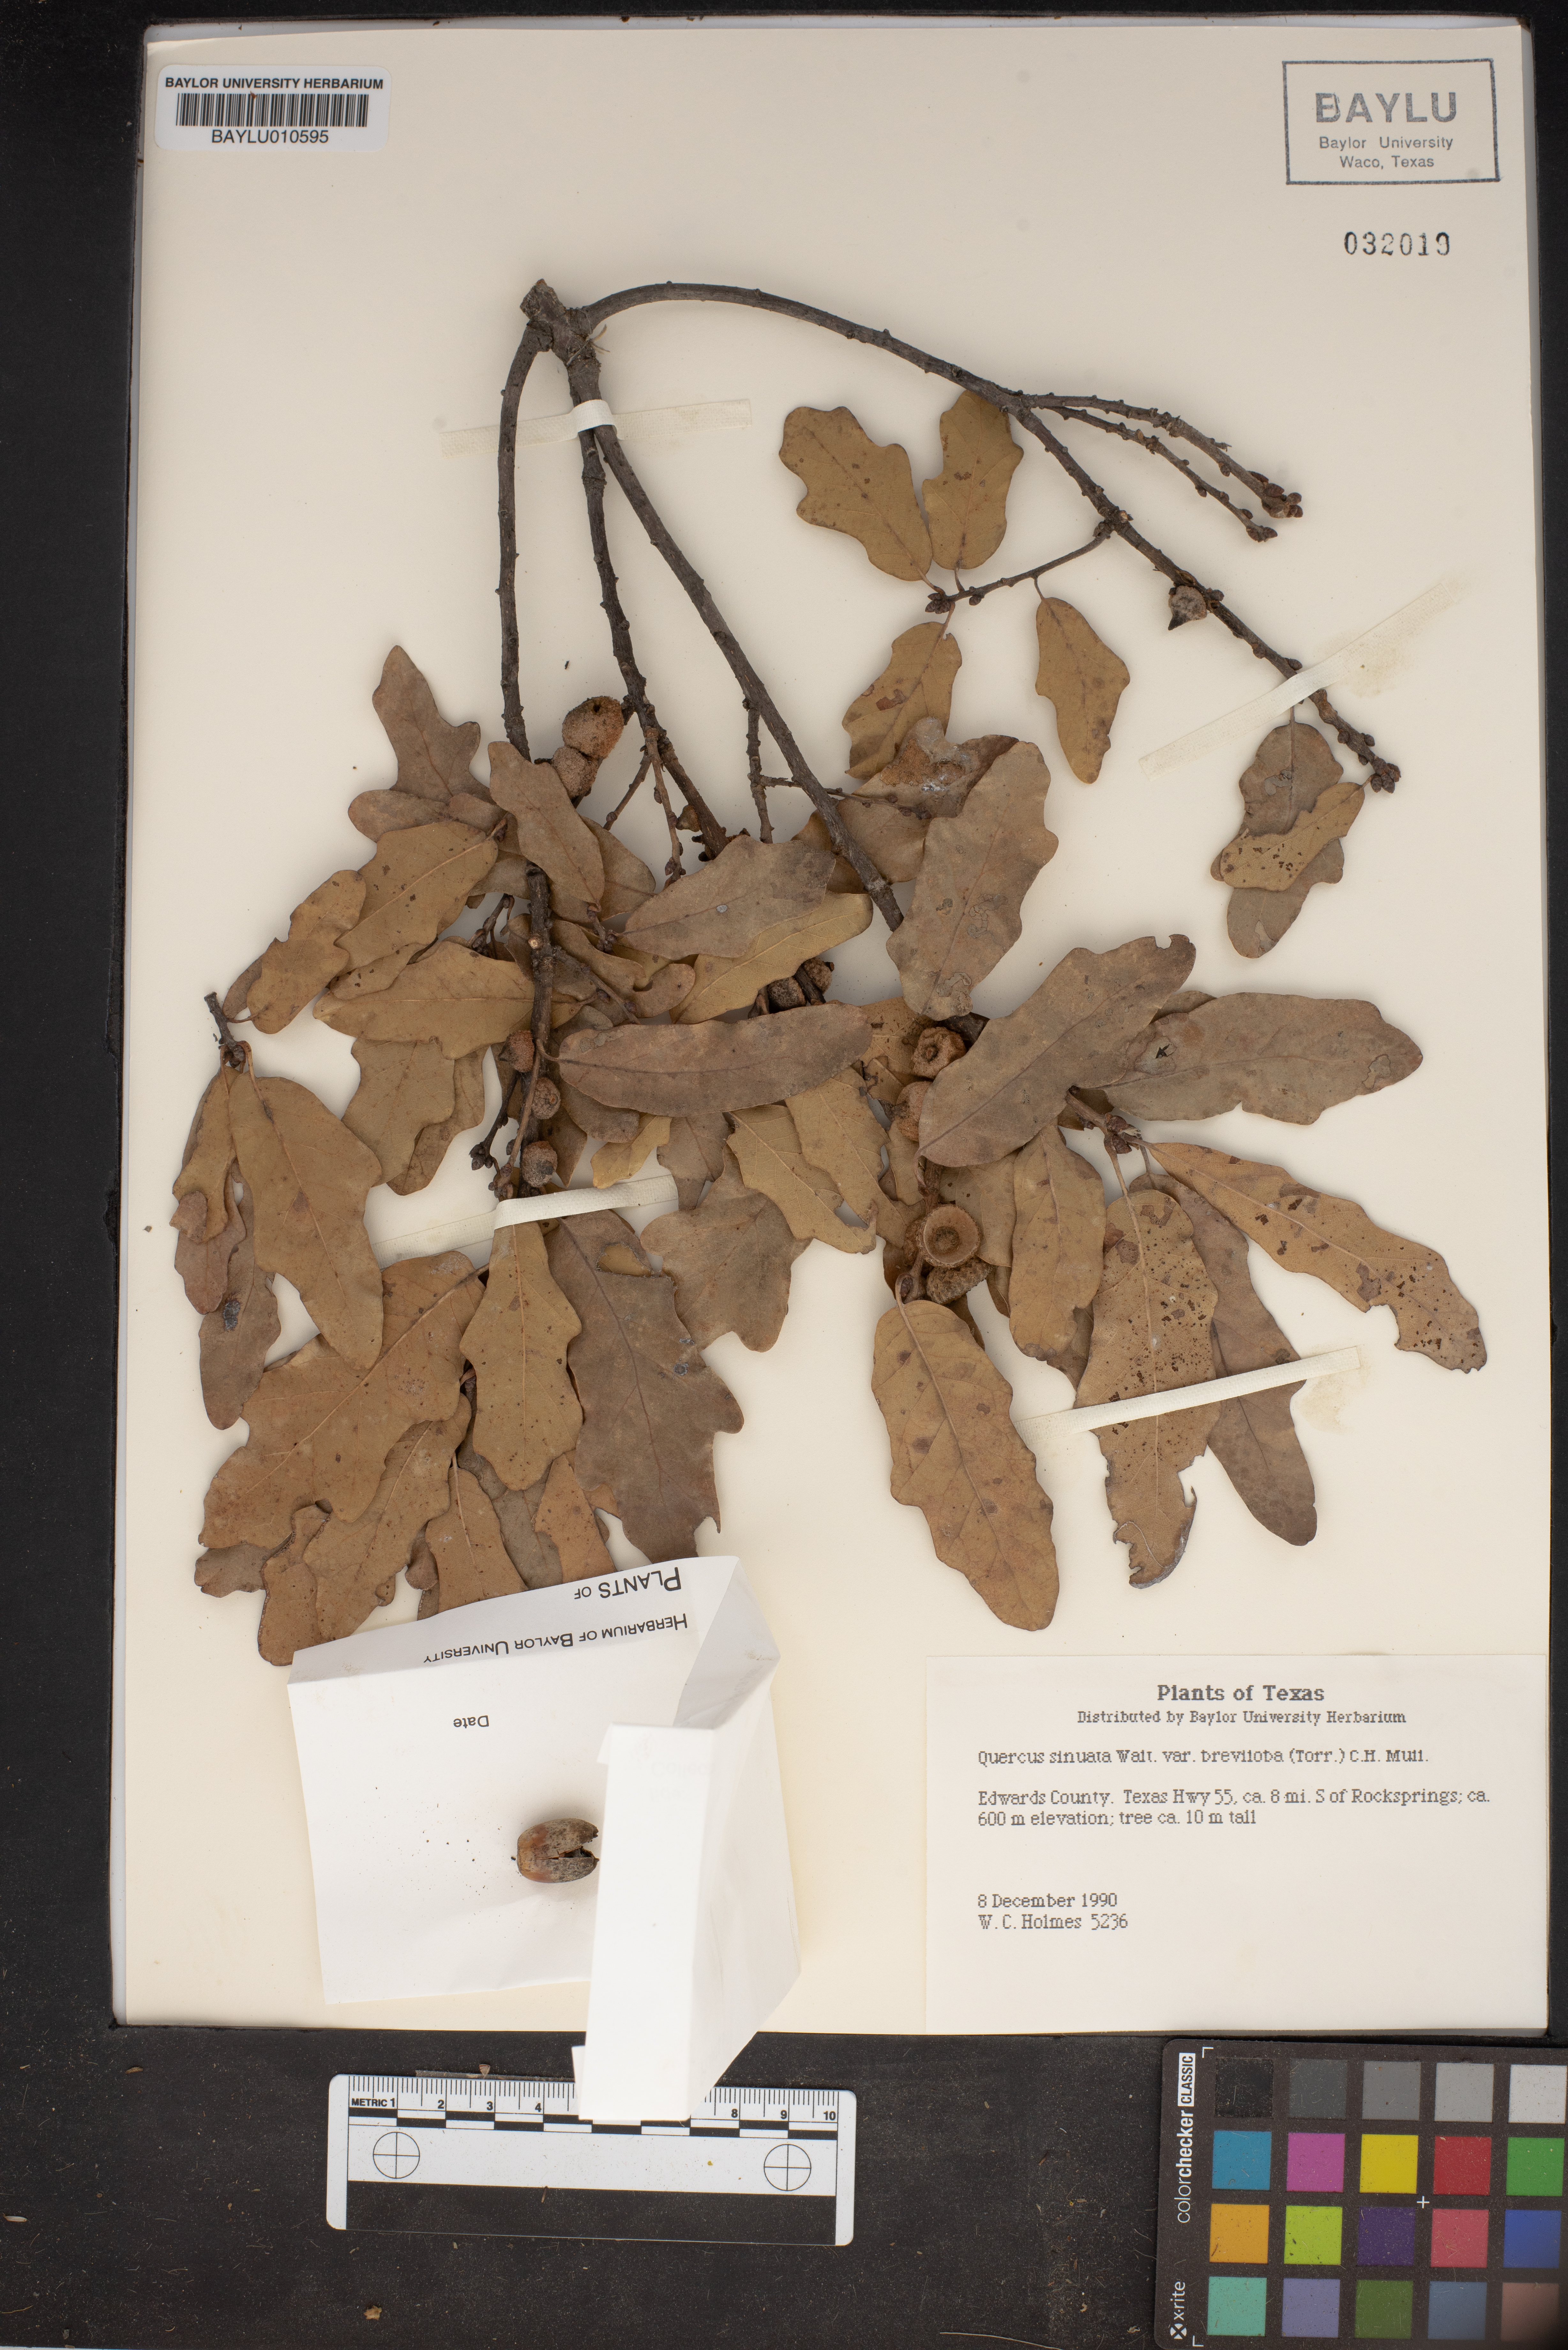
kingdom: Plantae
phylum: Tracheophyta
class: Magnoliopsida
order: Fagales
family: Fagaceae
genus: Quercus
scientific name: Quercus sinuata
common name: Durand oak
